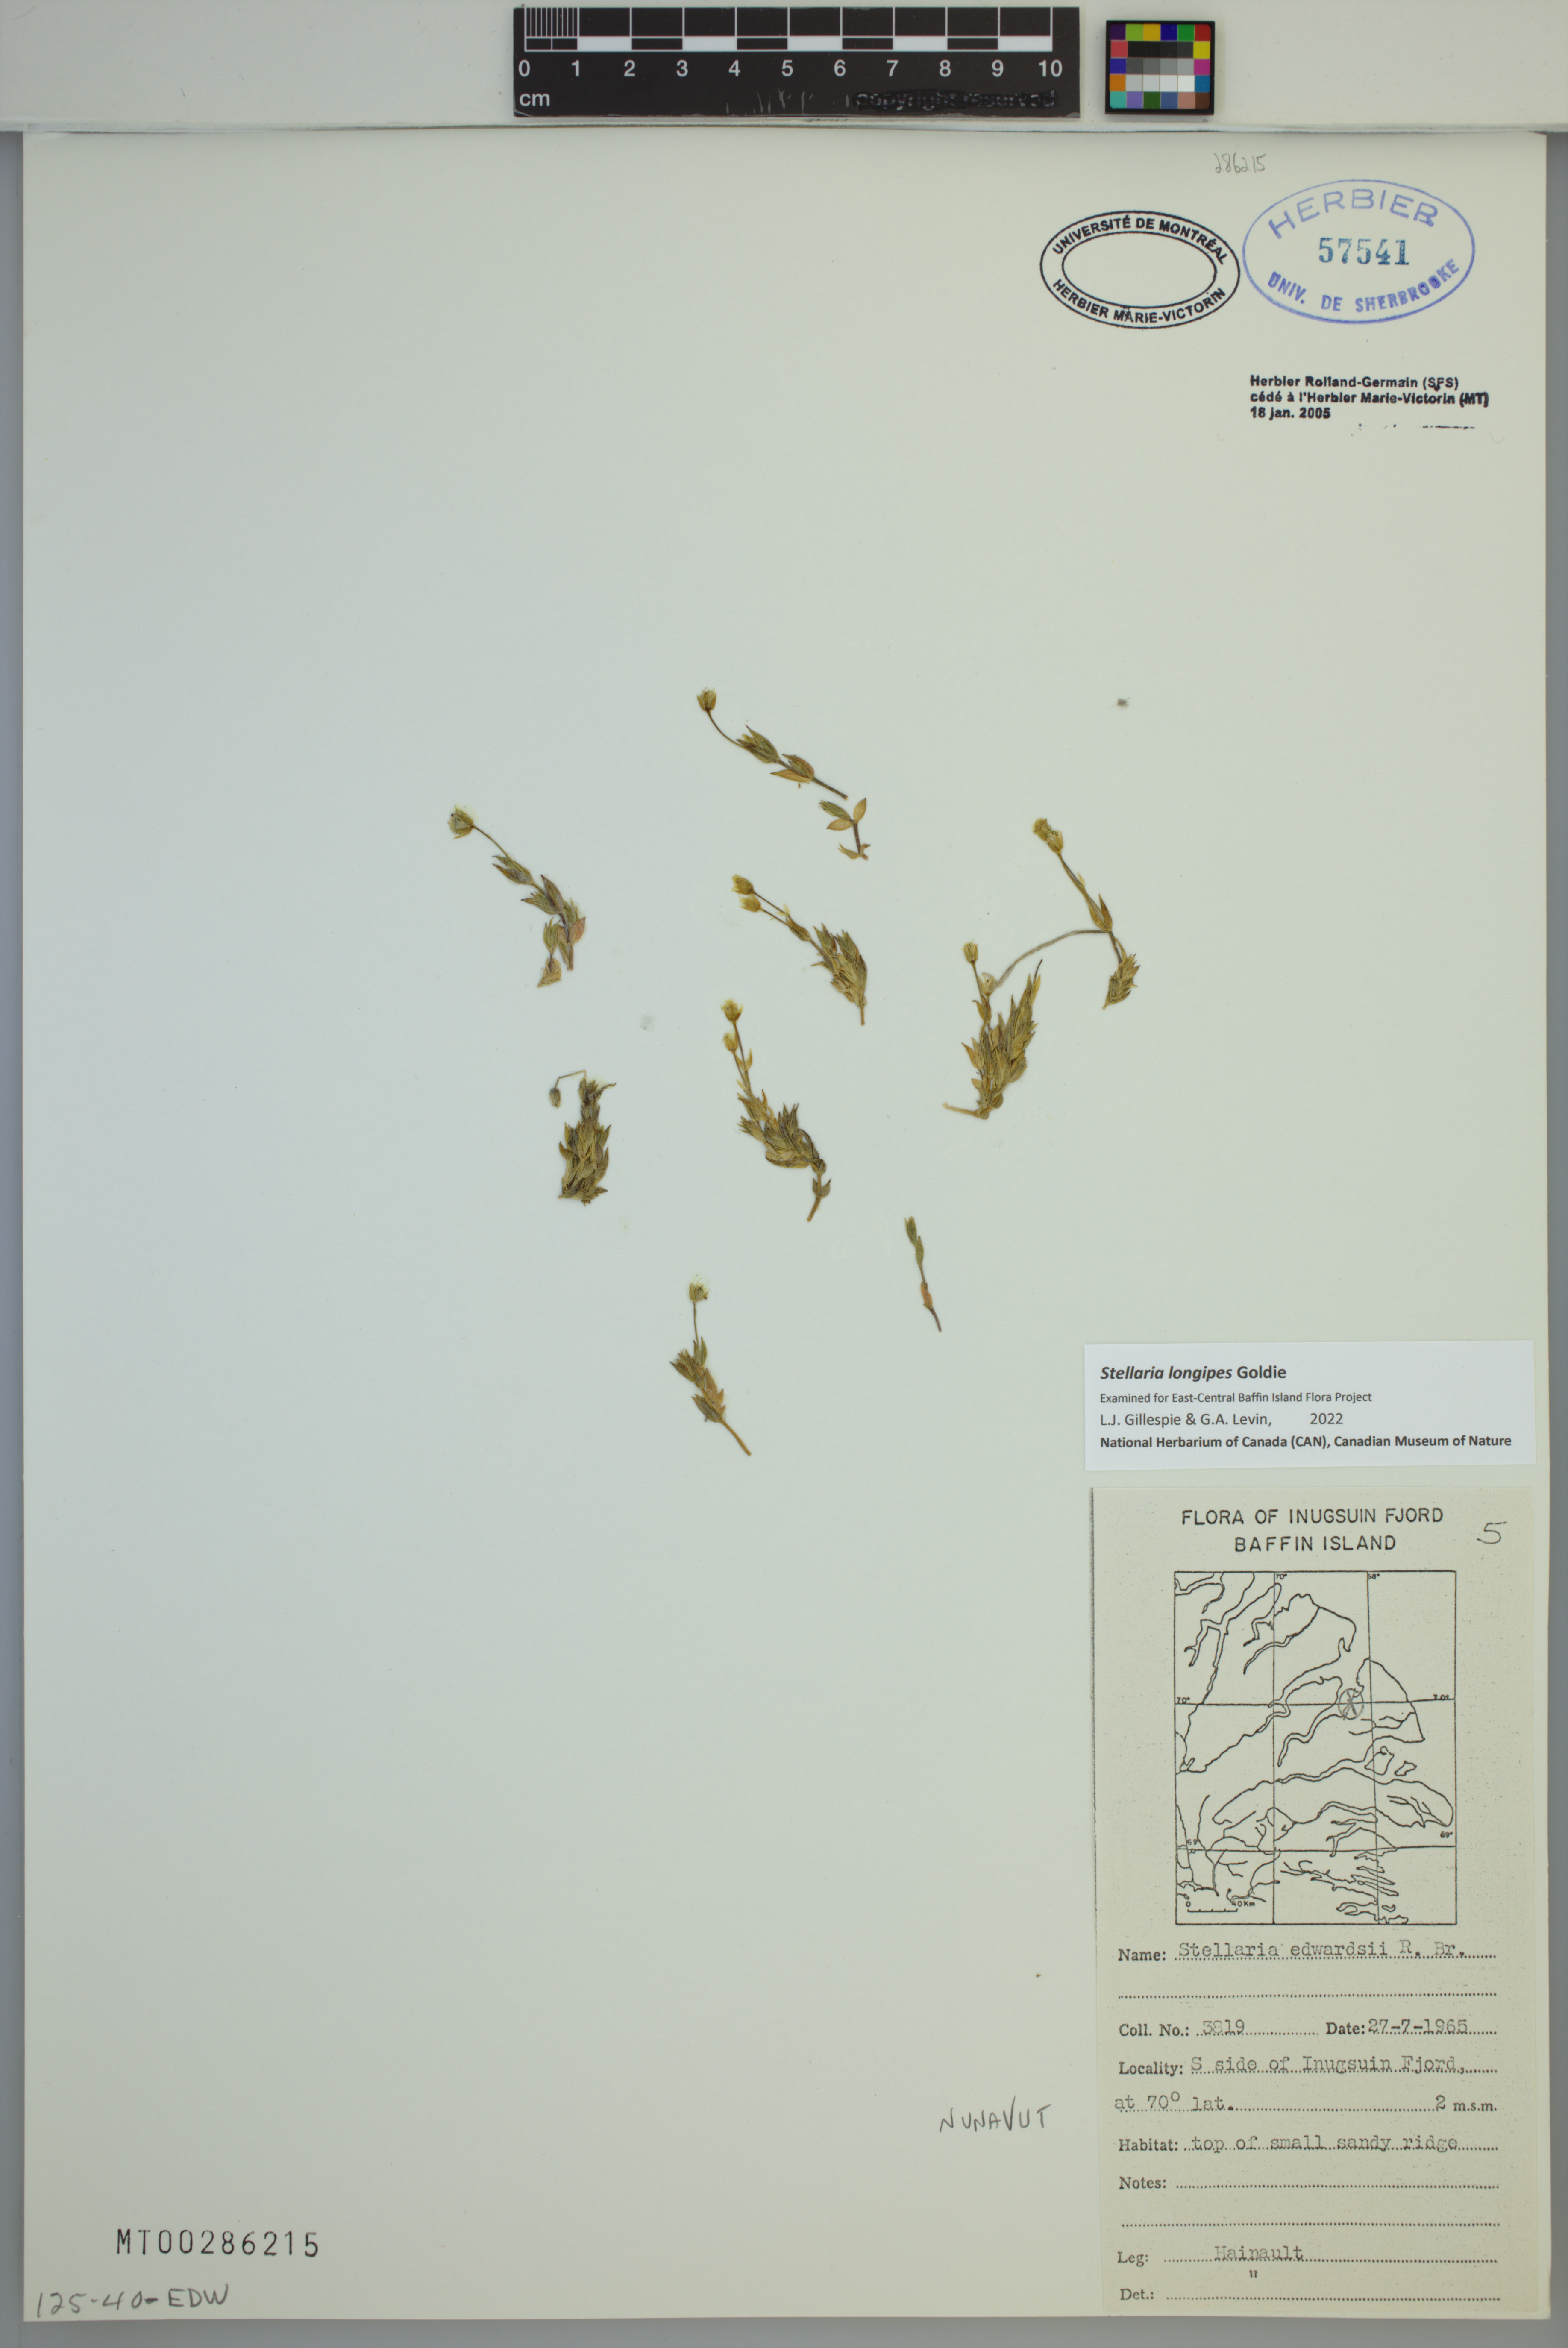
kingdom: Plantae
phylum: Tracheophyta
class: Magnoliopsida
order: Caryophyllales
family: Caryophyllaceae
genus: Stellaria
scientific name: Stellaria longipes
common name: Goldie's starwort
